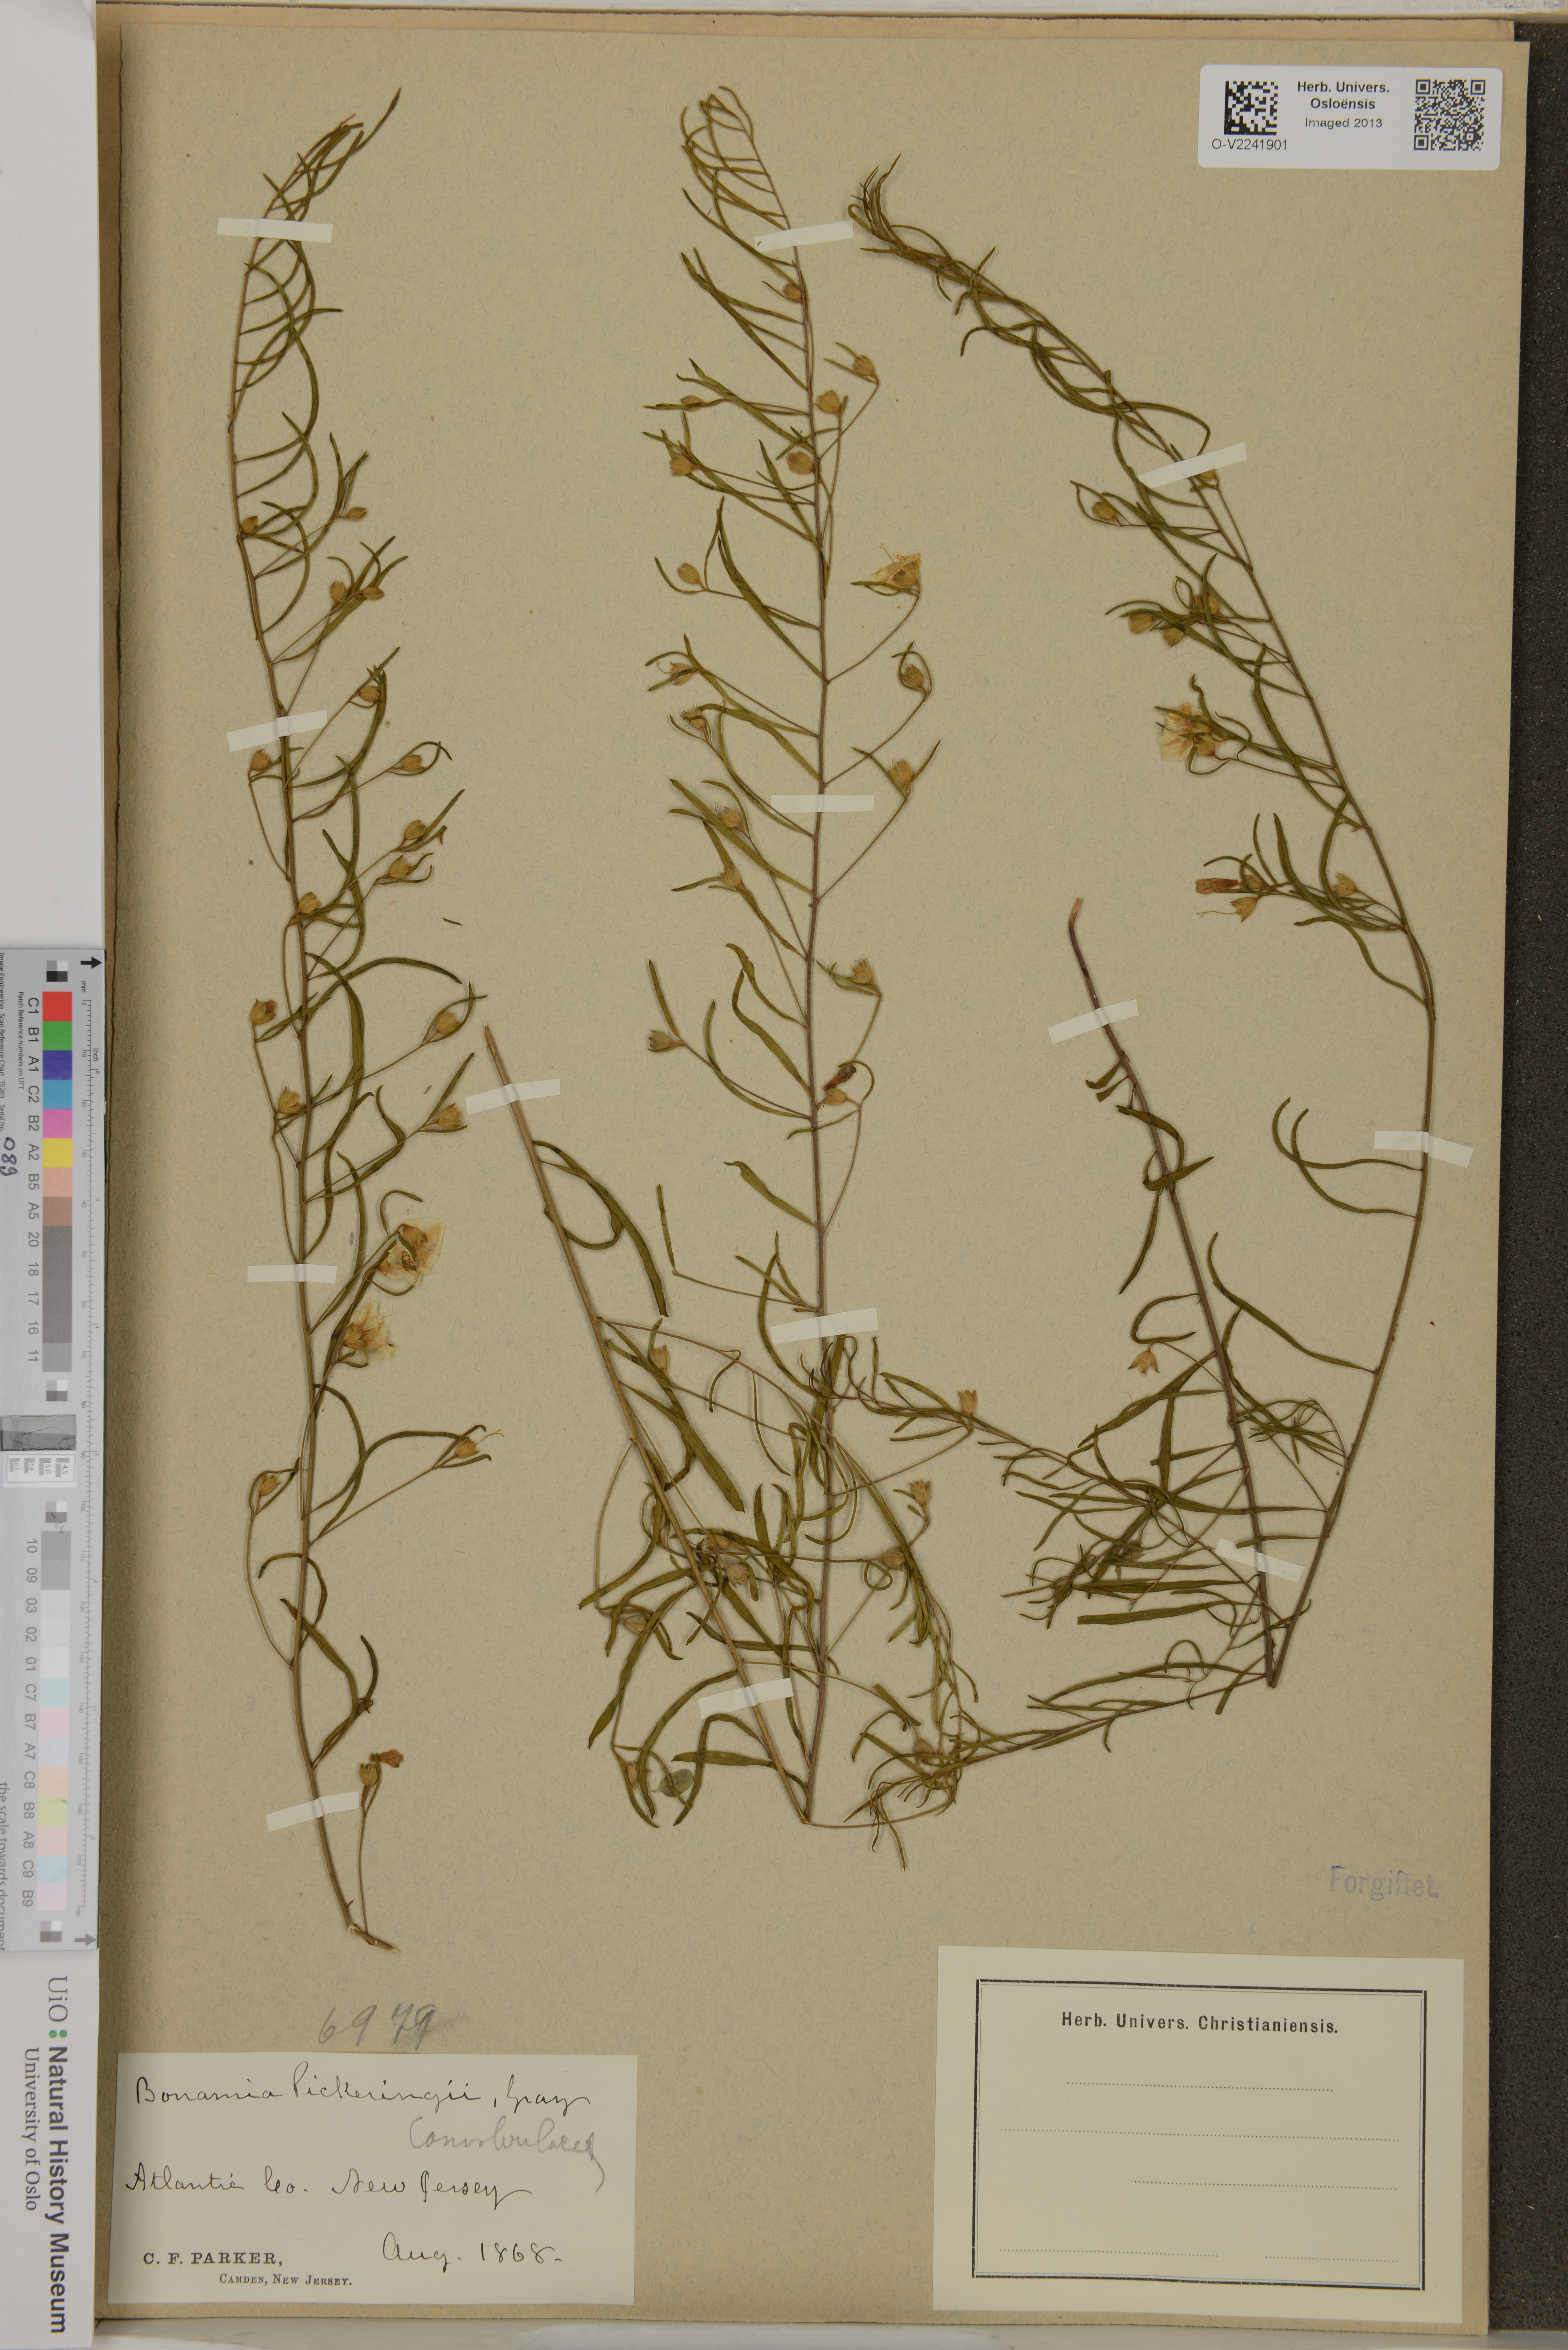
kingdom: Plantae
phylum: Tracheophyta
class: Magnoliopsida
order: Solanales
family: Convolvulaceae
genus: Stylisma
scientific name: Stylisma pickeringii
